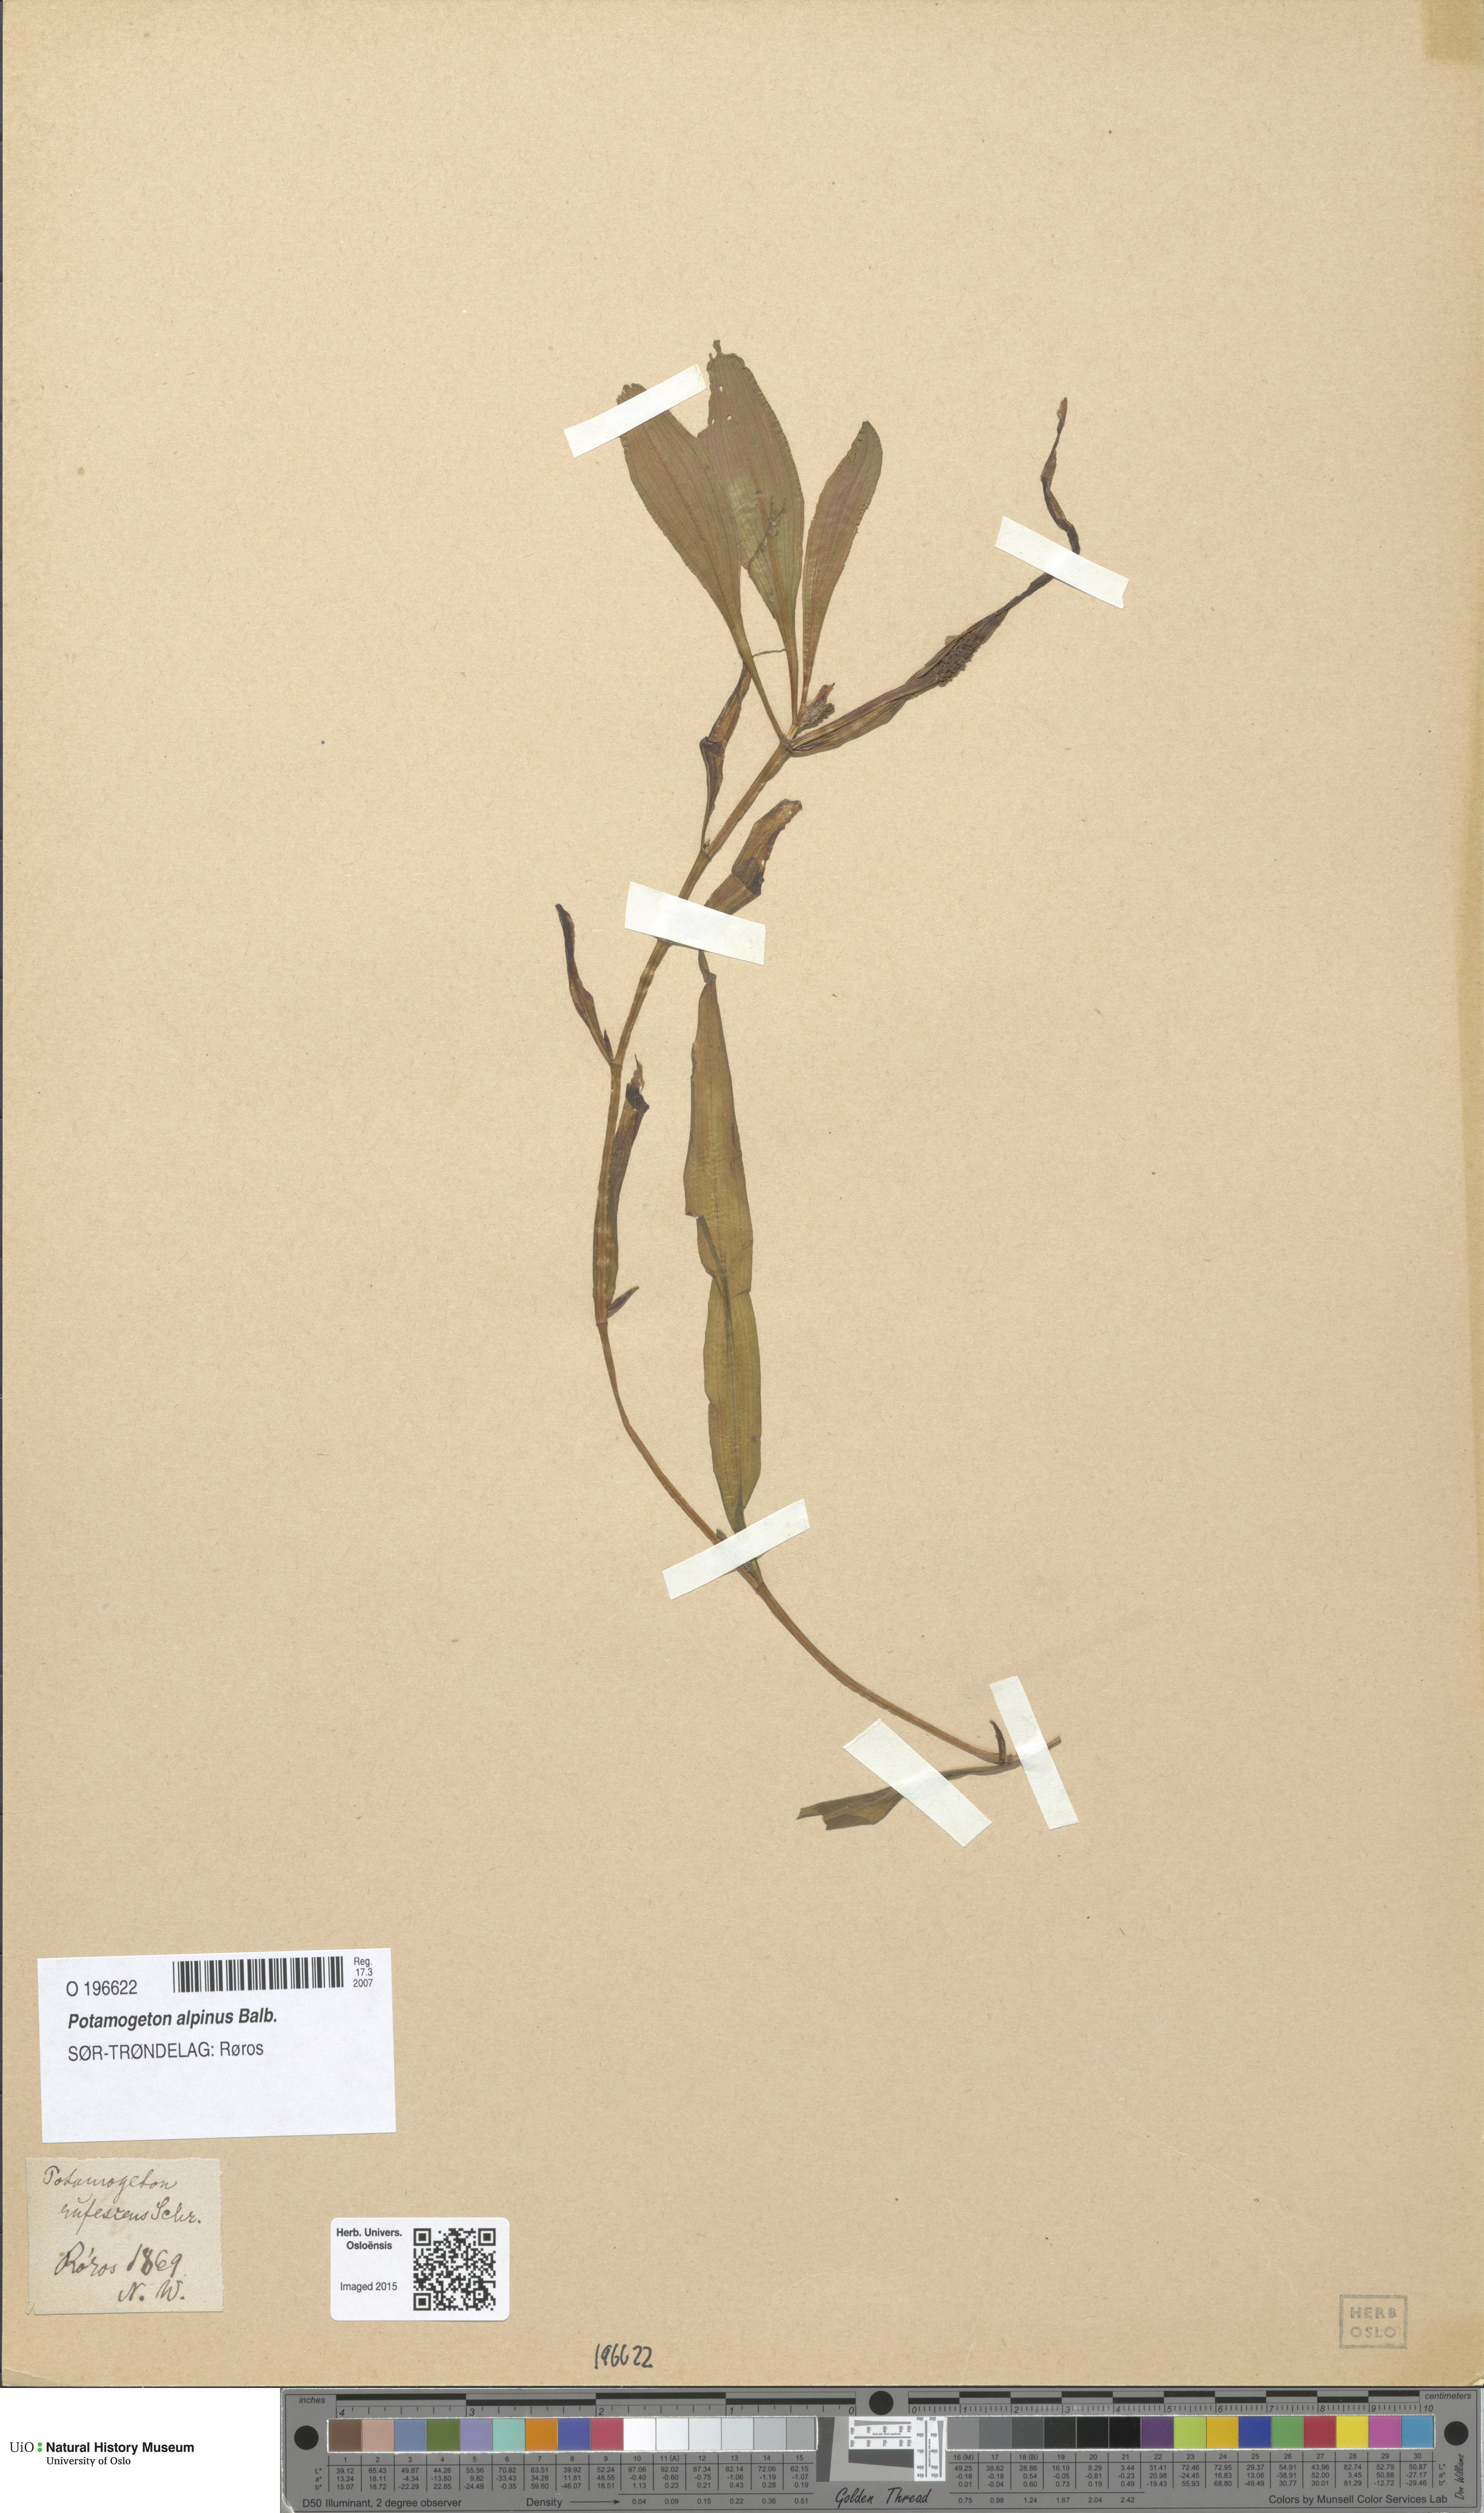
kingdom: Plantae
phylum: Tracheophyta
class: Liliopsida
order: Alismatales
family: Potamogetonaceae
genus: Potamogeton
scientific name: Potamogeton alpinus
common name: Red pondweed
